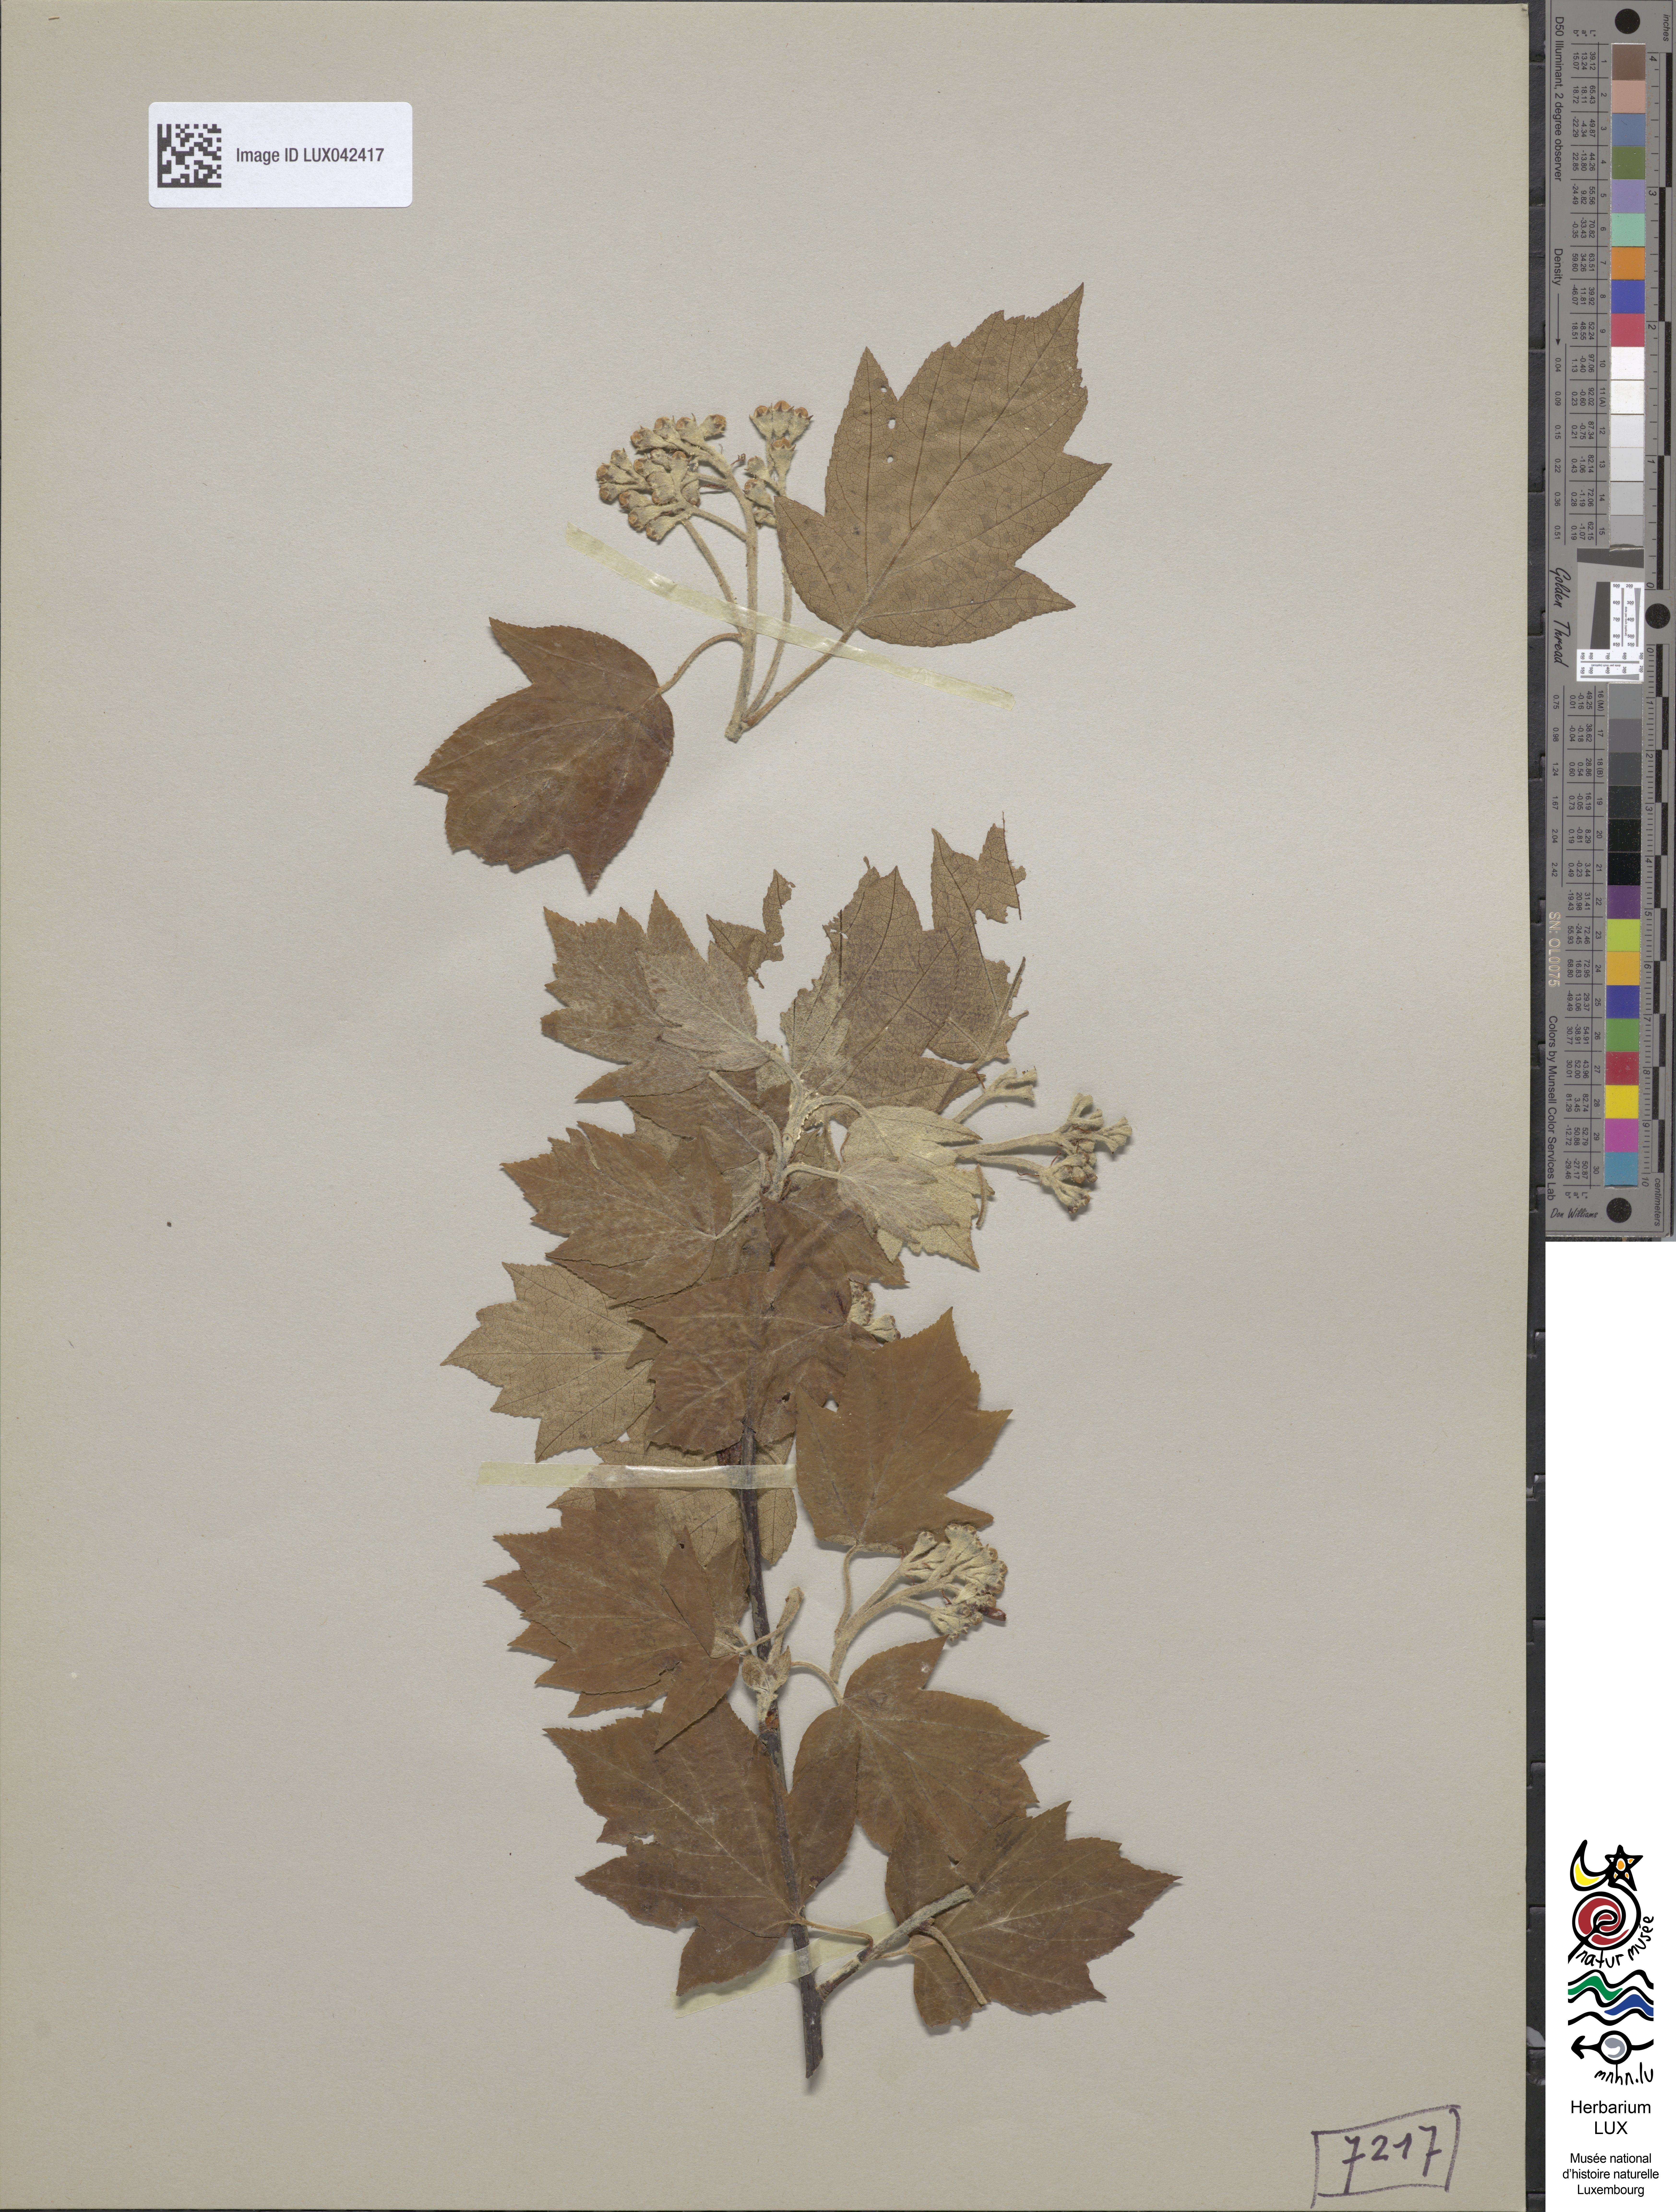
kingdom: Plantae
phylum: Tracheophyta
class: Magnoliopsida
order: Rosales
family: Rosaceae
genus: Torminalis
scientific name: Torminalis glaberrima
